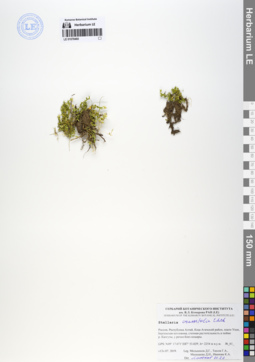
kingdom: Plantae
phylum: Tracheophyta
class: Magnoliopsida
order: Caryophyllales
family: Caryophyllaceae
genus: Stellaria
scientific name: Stellaria crassifolia
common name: Fleshy starwort
